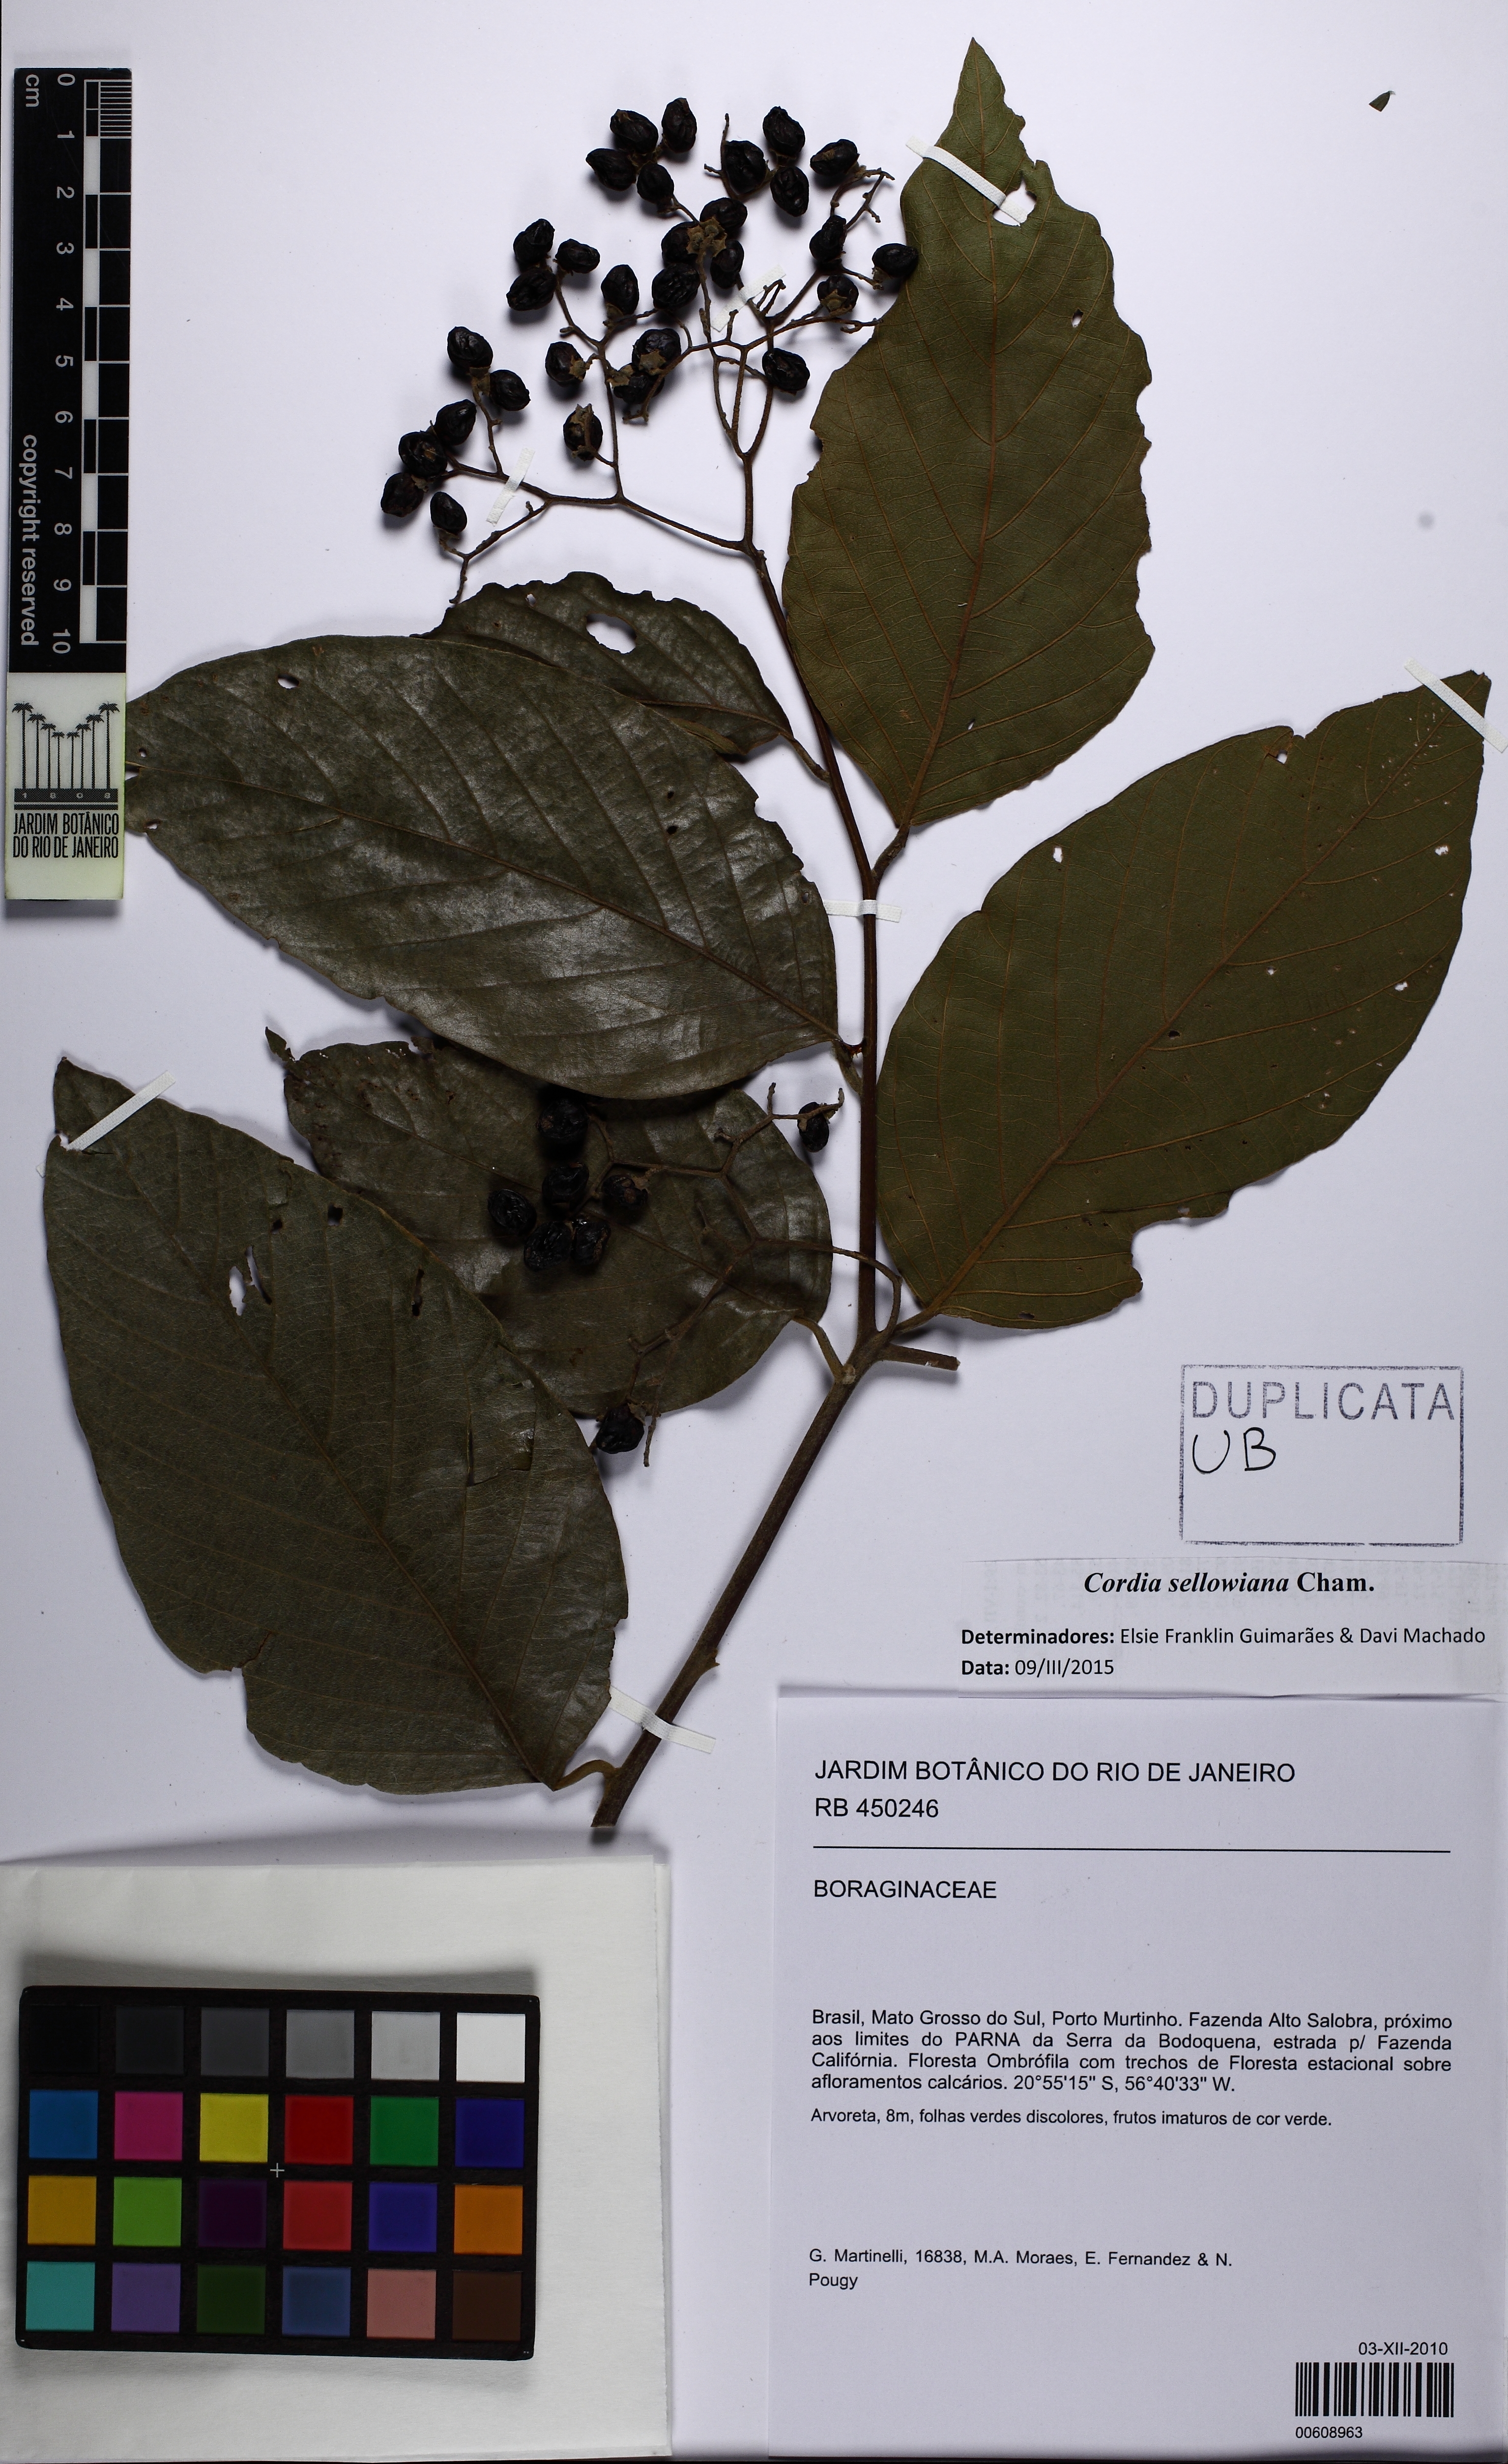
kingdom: Plantae
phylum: Tracheophyta
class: Magnoliopsida
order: Boraginales
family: Cordiaceae
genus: Cordia
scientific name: Cordia sellowiana
